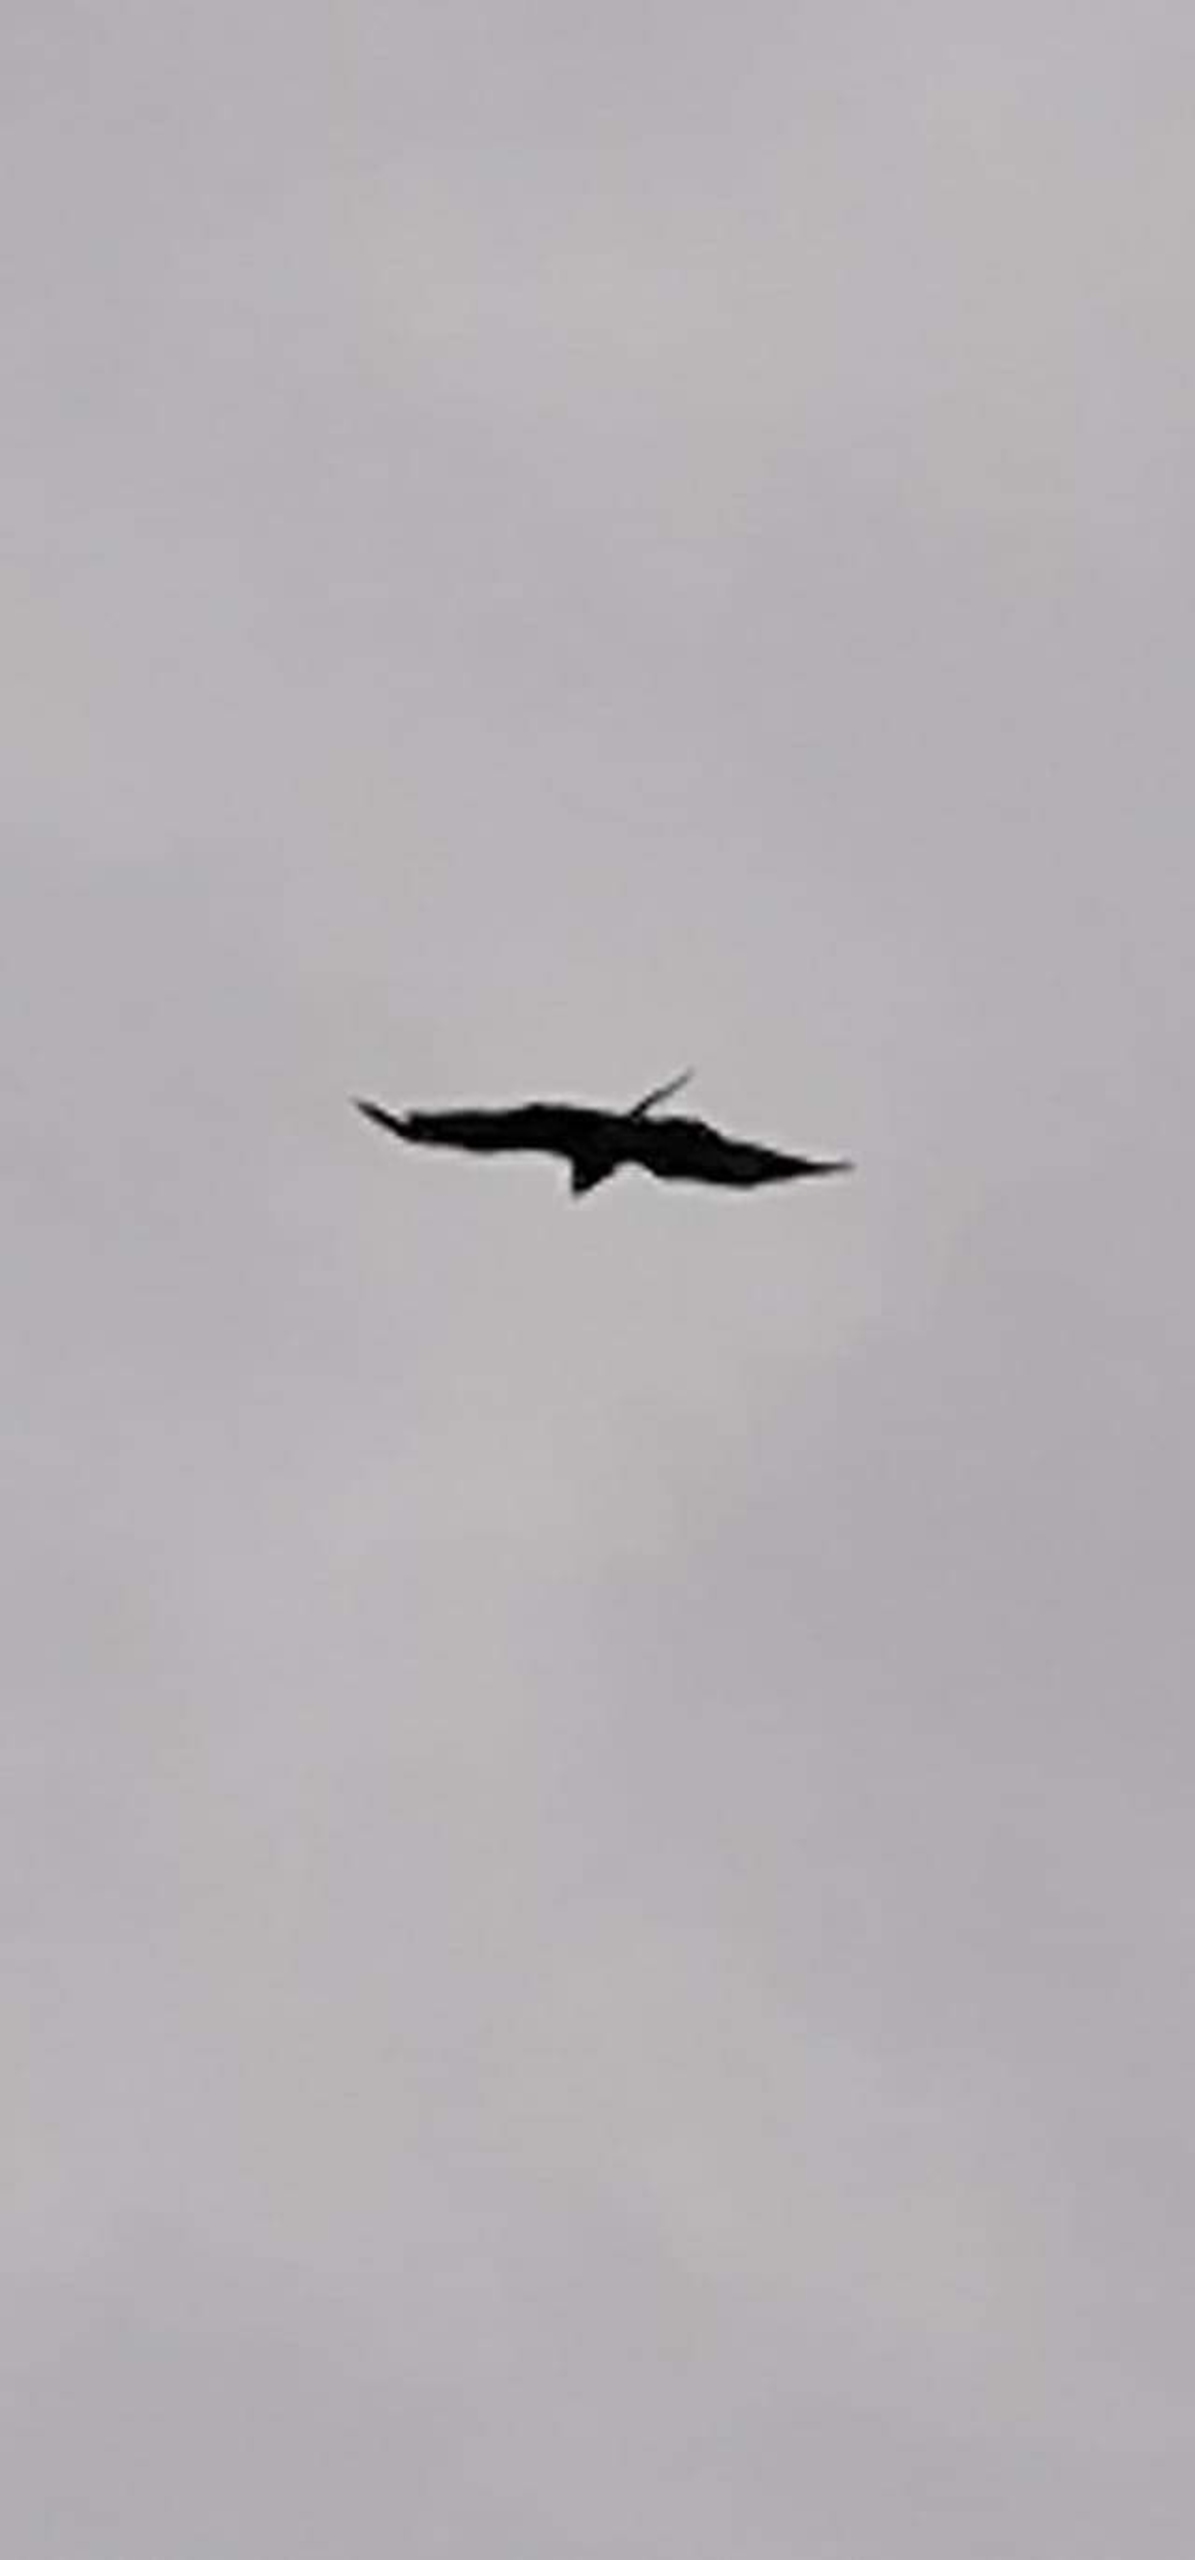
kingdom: Animalia
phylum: Chordata
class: Aves
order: Accipitriformes
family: Accipitridae
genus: Milvus
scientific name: Milvus milvus
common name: Rød glente
